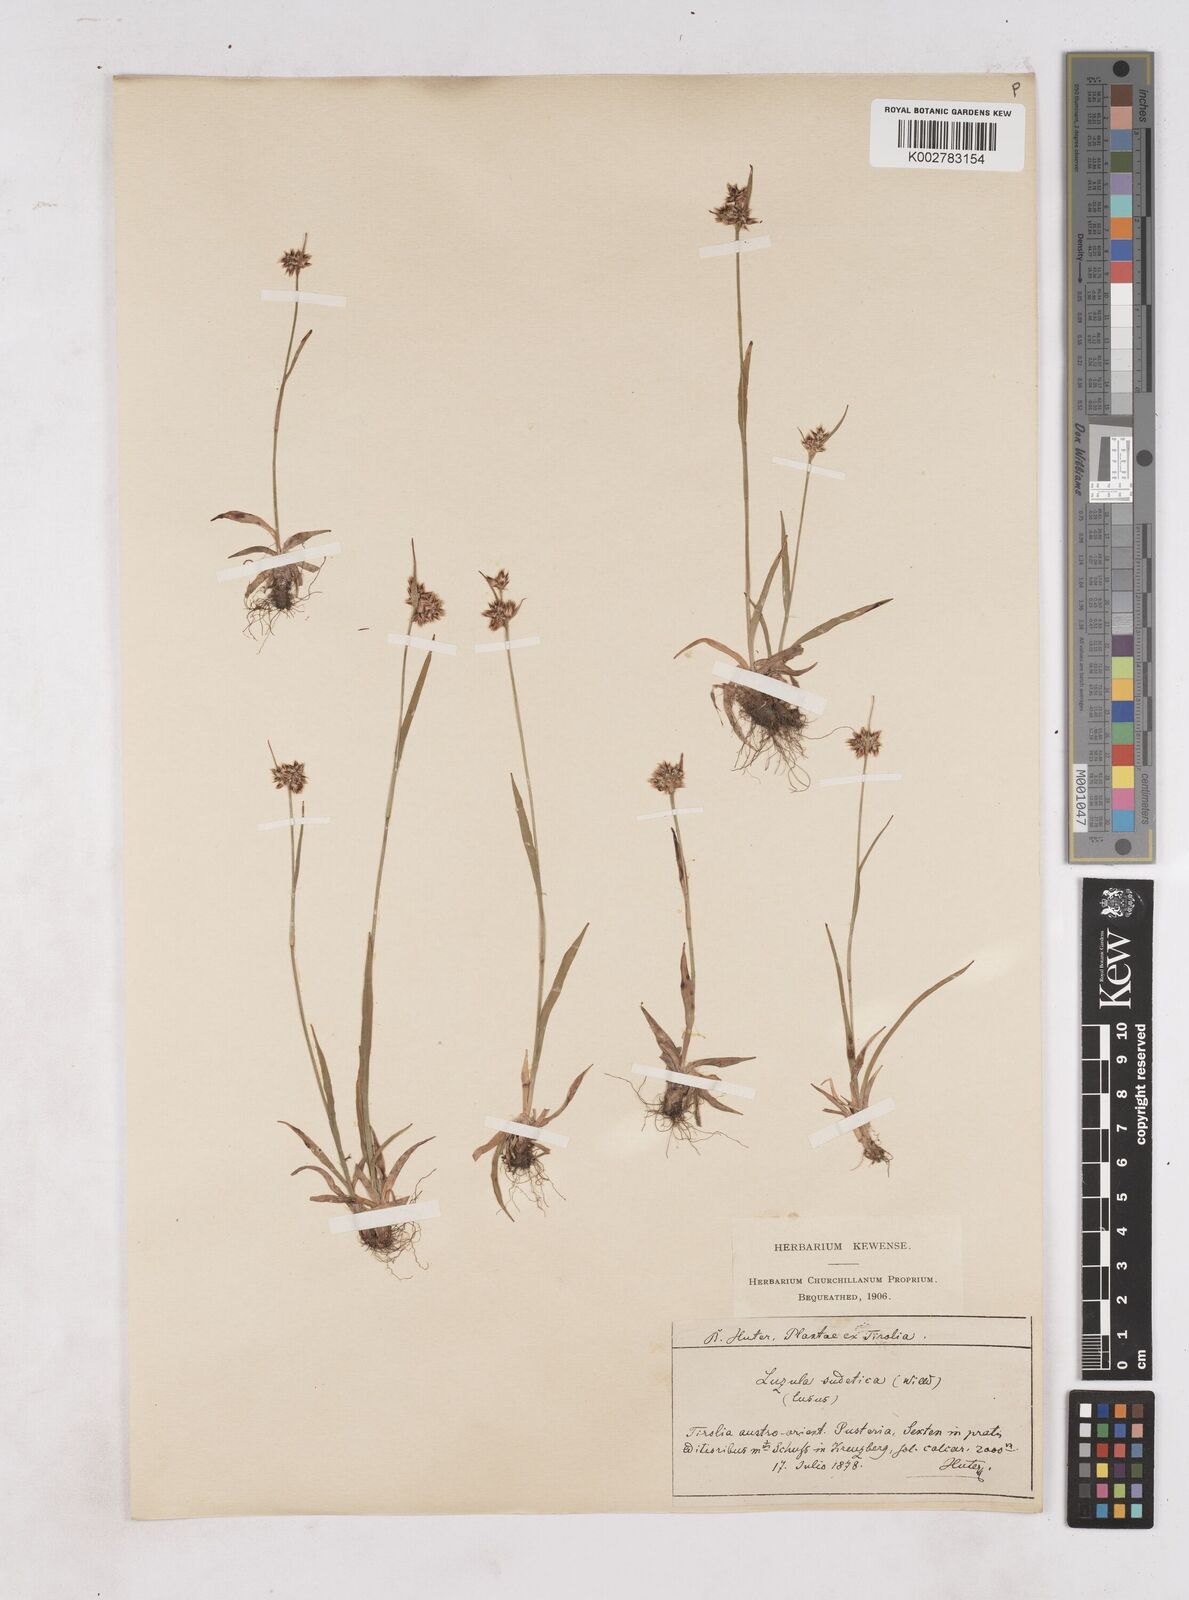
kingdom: Plantae
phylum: Tracheophyta
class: Liliopsida
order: Poales
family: Juncaceae
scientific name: Juncaceae
